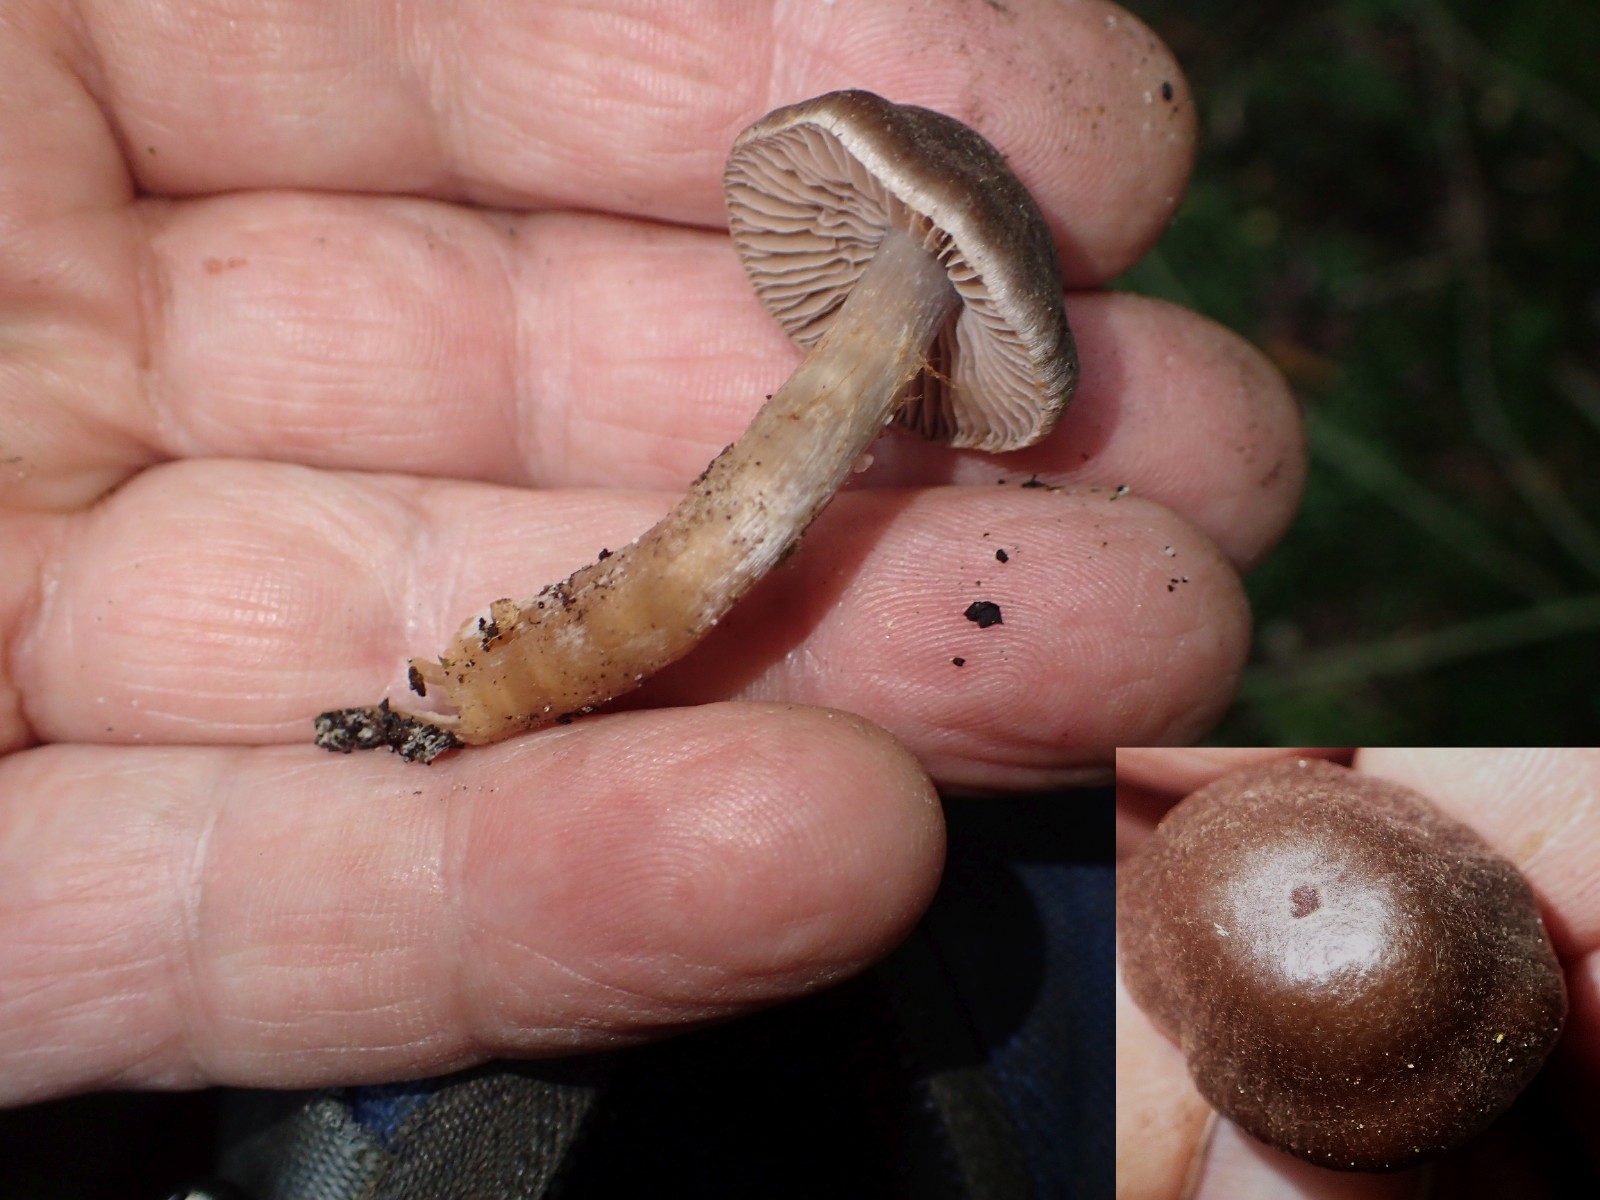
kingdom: Fungi
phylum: Basidiomycota
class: Agaricomycetes
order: Agaricales
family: Cortinariaceae
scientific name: Cortinariaceae
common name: slørhatfamilien
